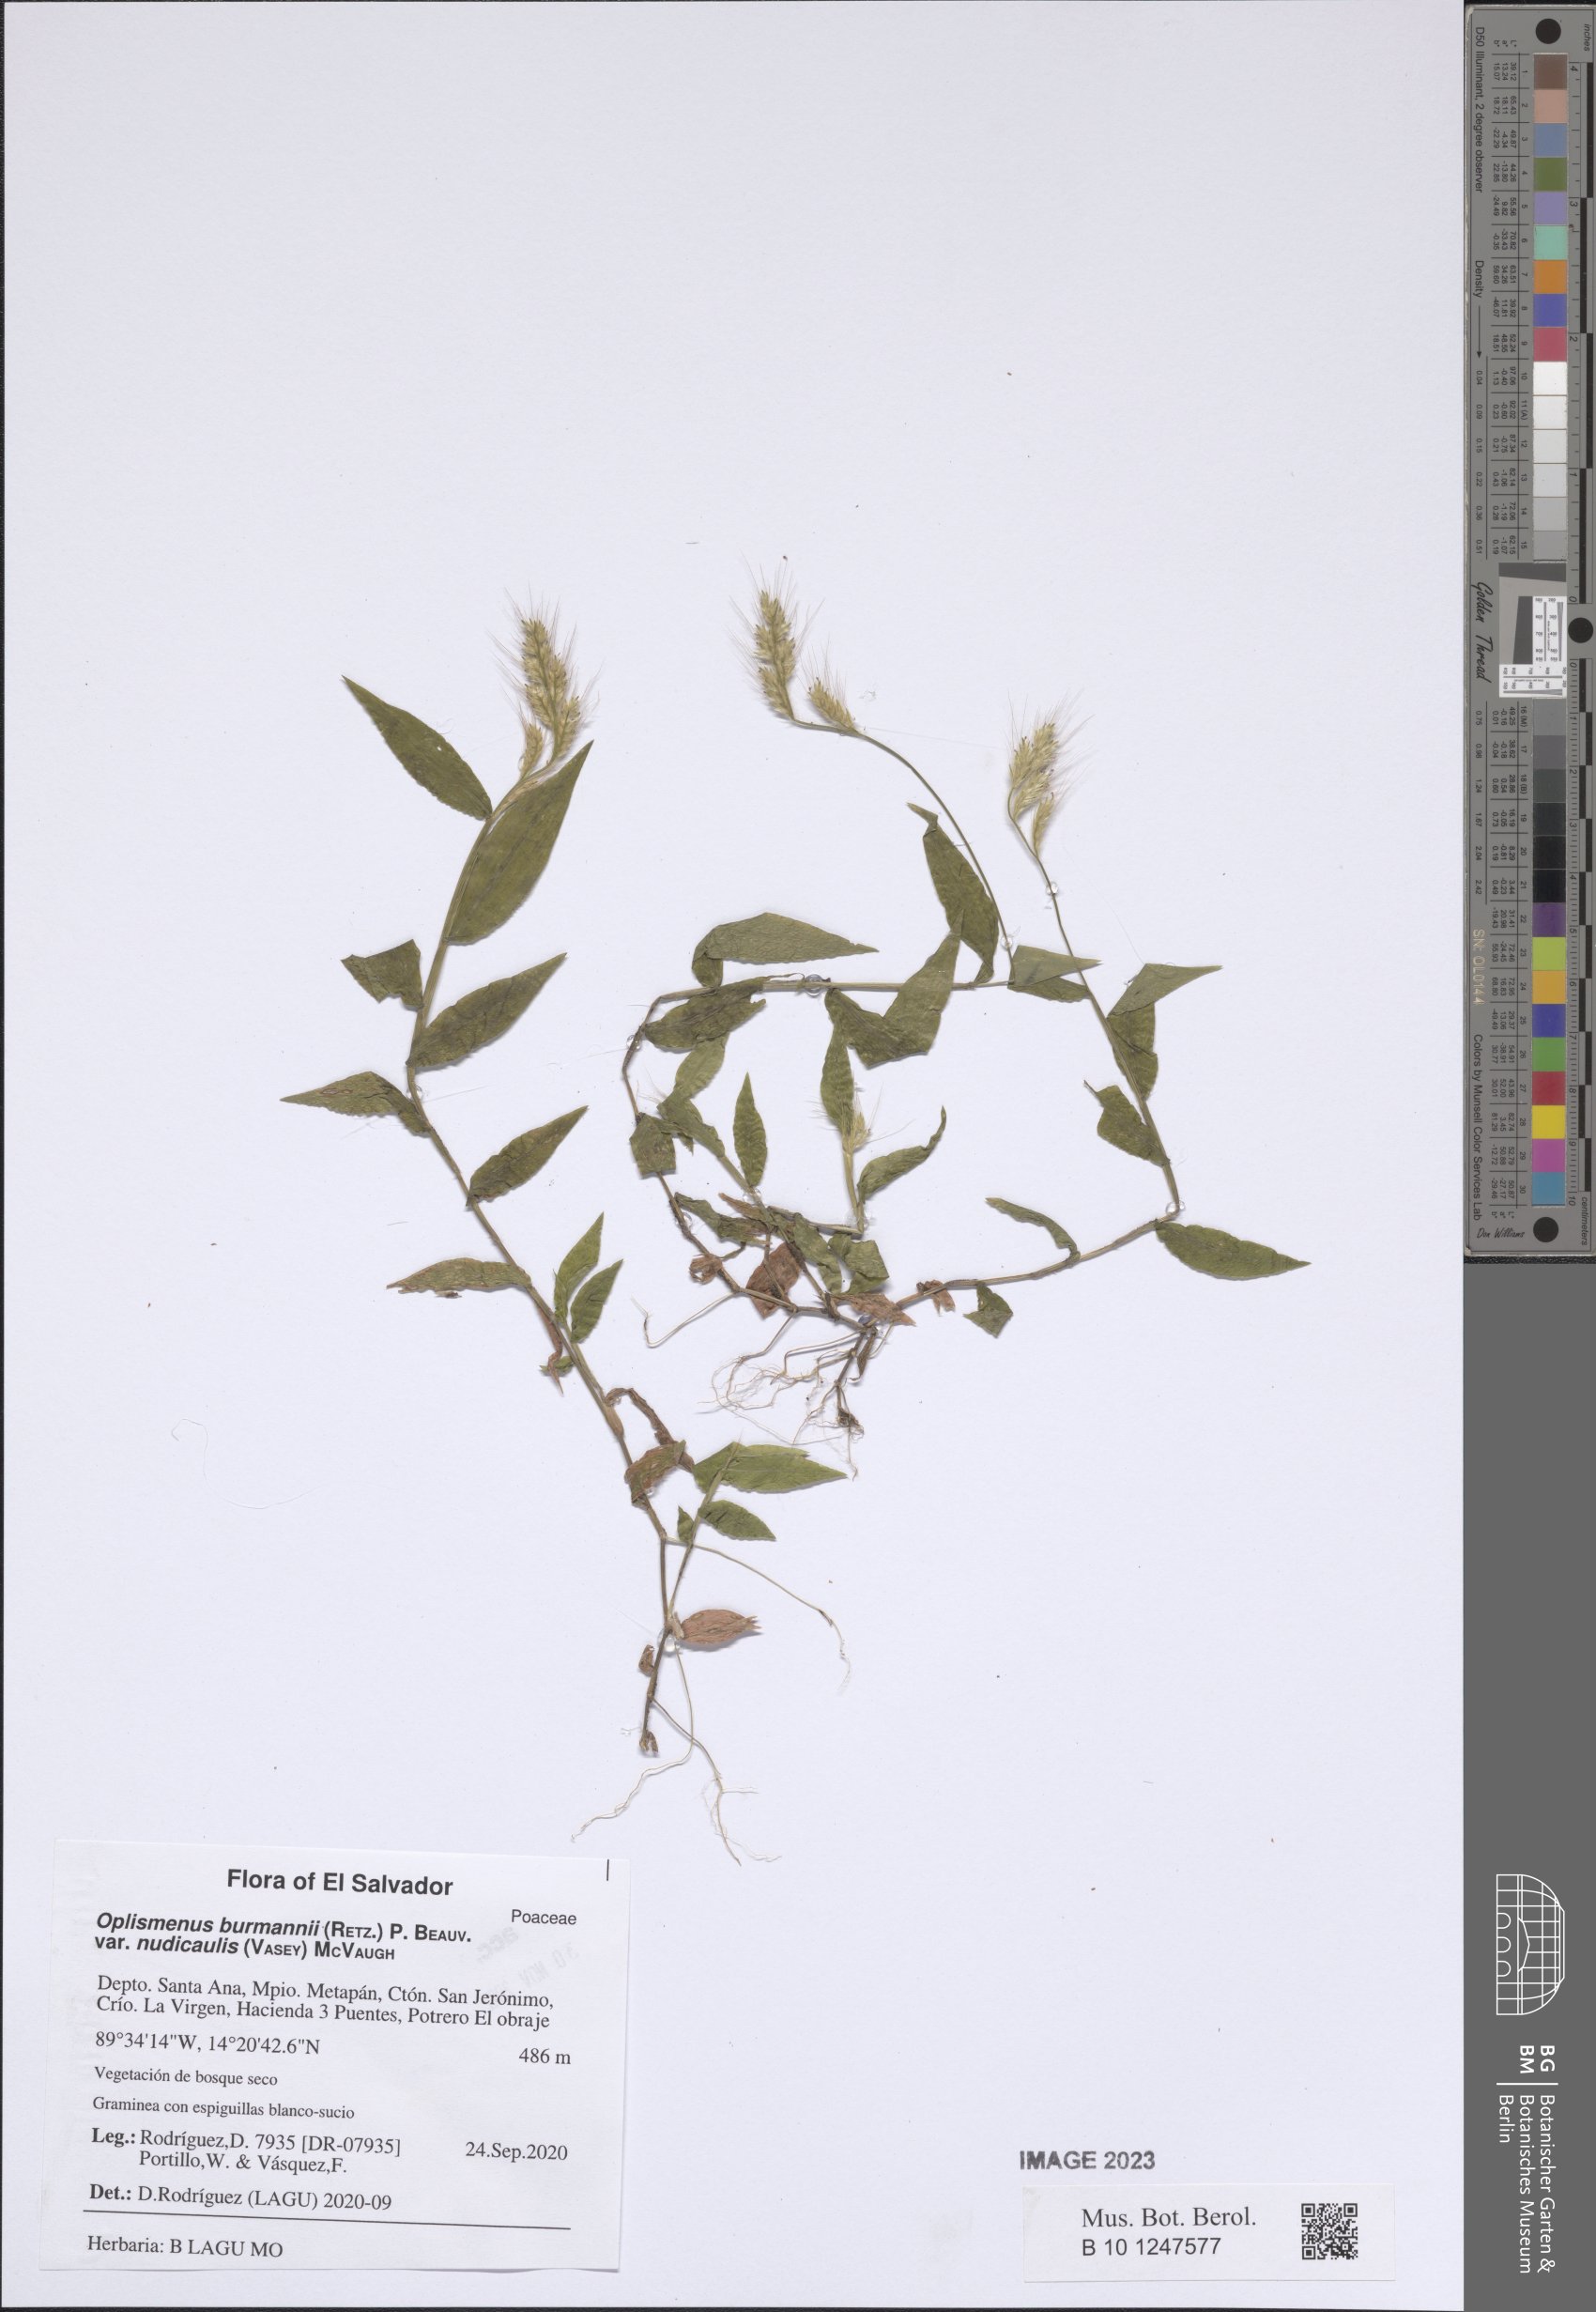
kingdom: Plantae
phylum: Tracheophyta
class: Liliopsida
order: Poales
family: Poaceae
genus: Oplismenus
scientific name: Oplismenus burmanni
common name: Burmann's basketgrass
